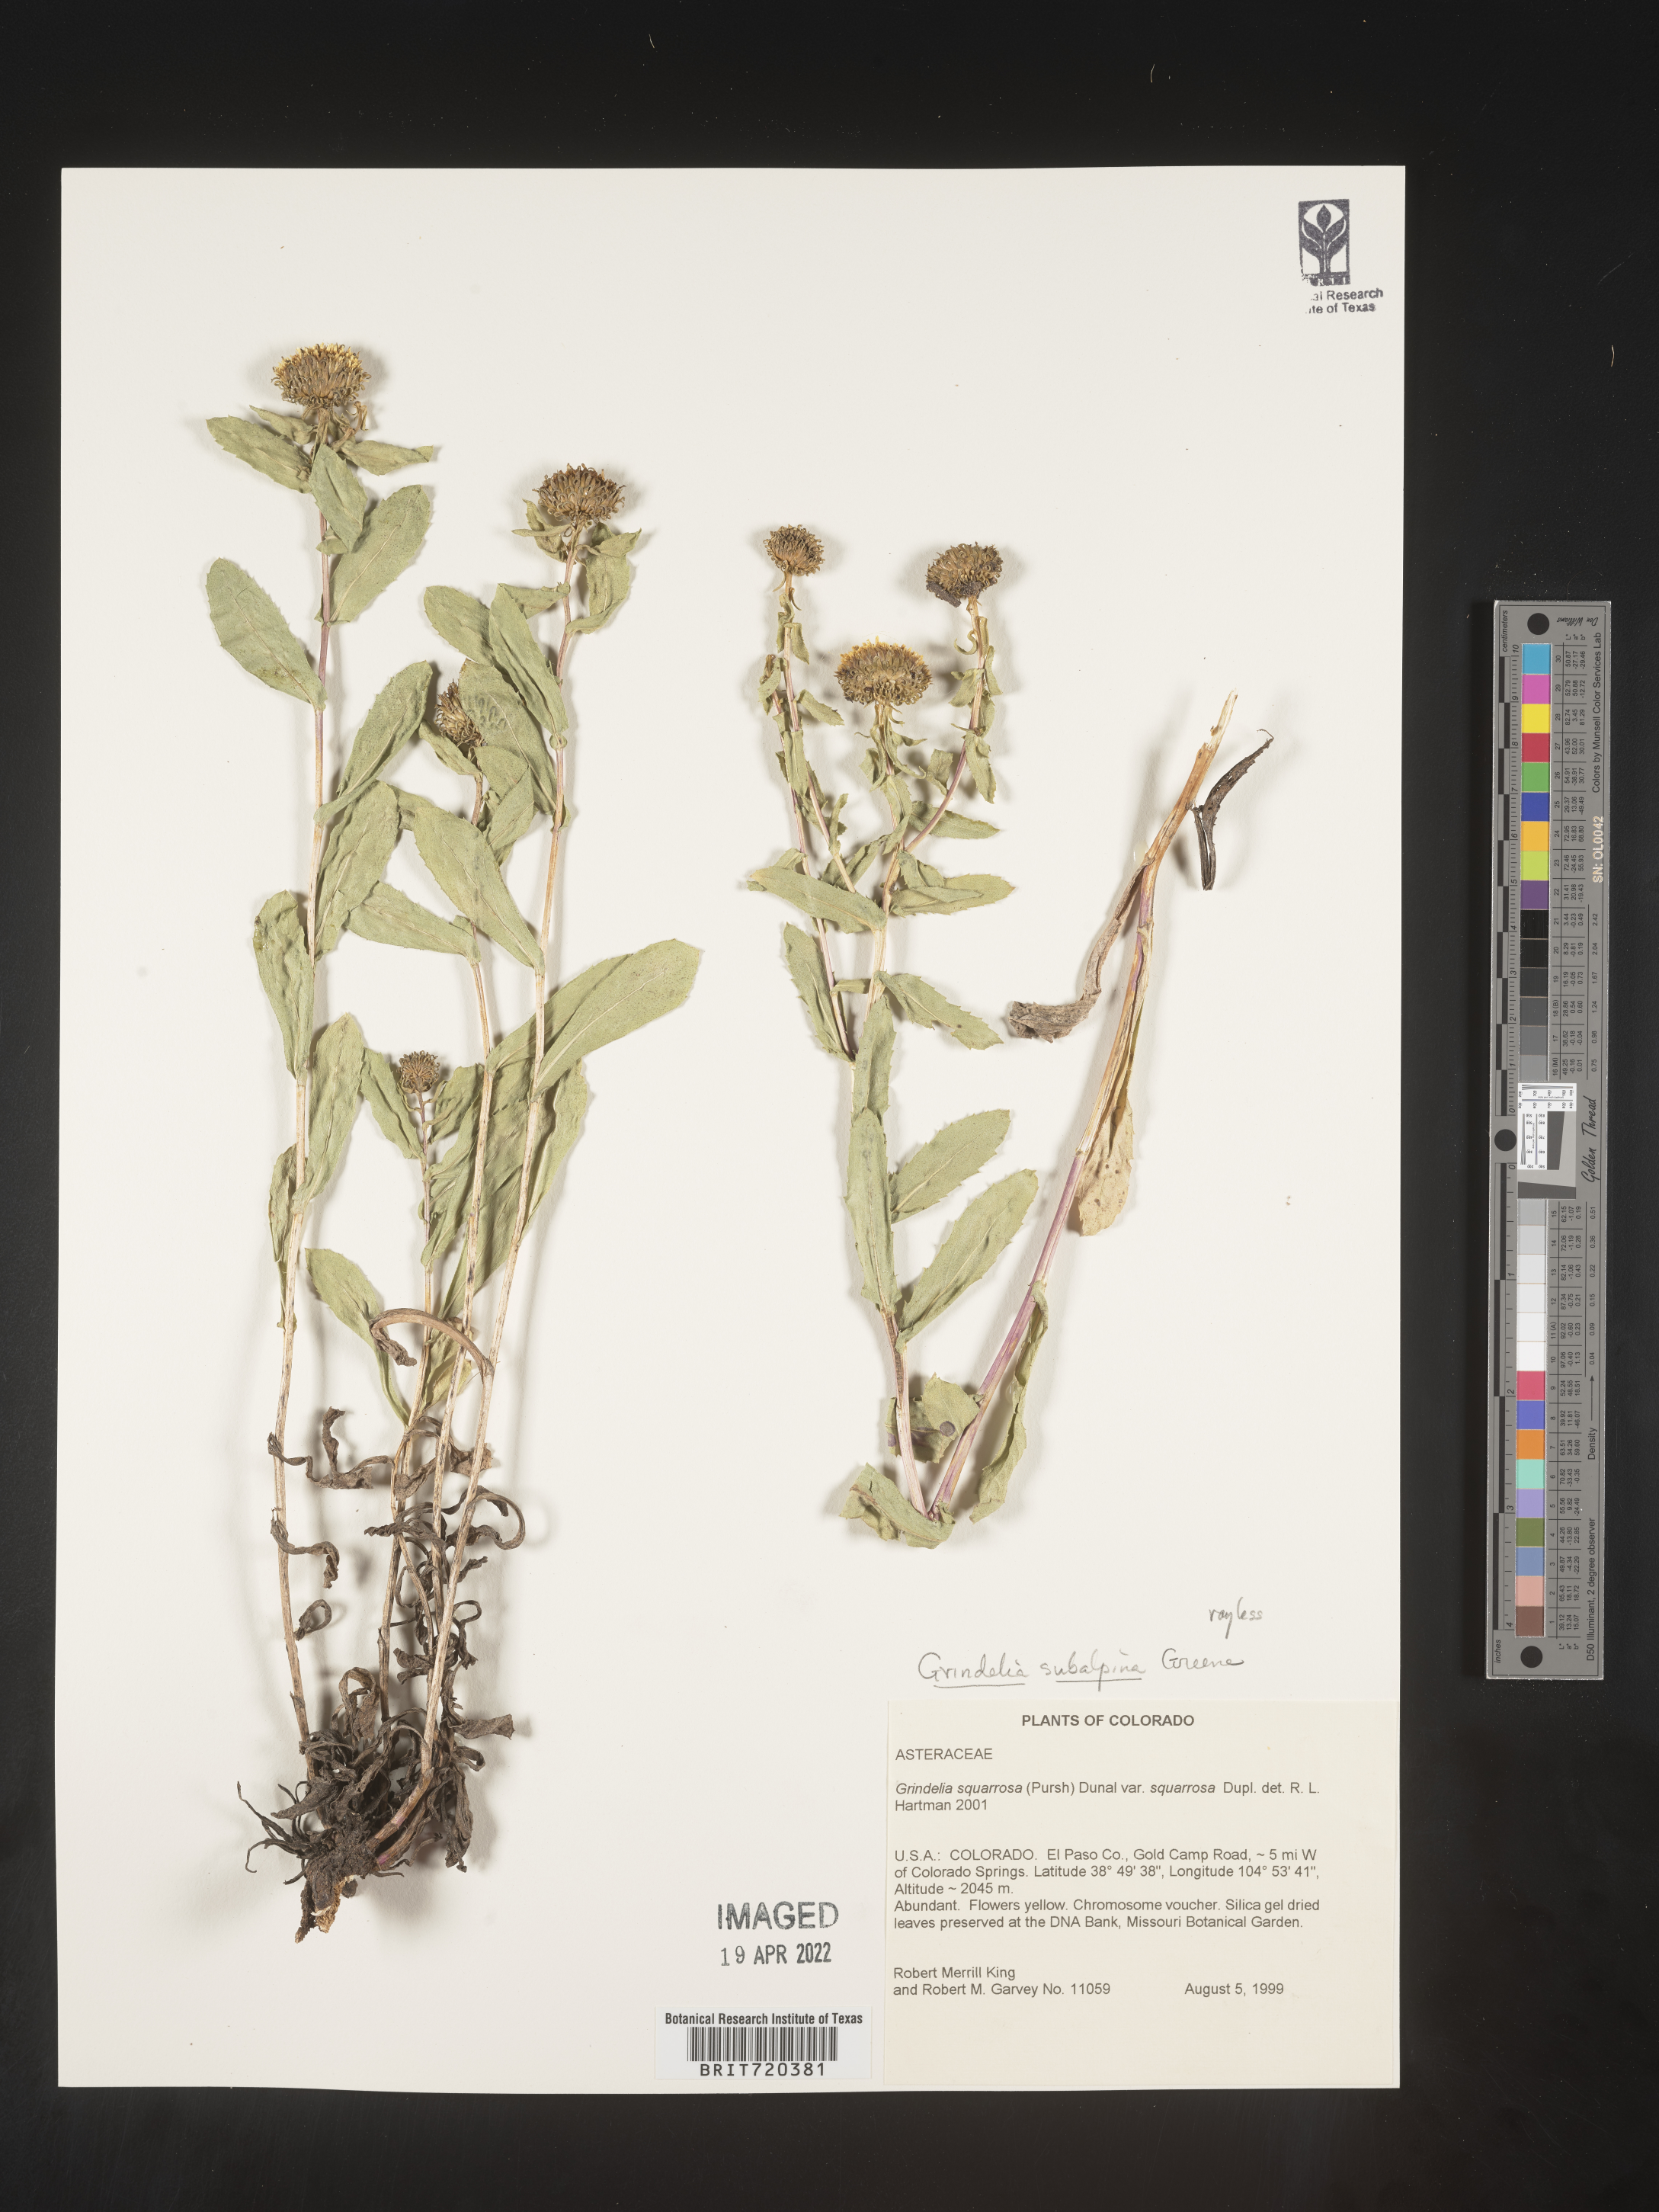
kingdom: Plantae
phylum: Tracheophyta
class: Magnoliopsida
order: Asterales
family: Asteraceae
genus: Grindelia
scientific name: Grindelia subalpina
